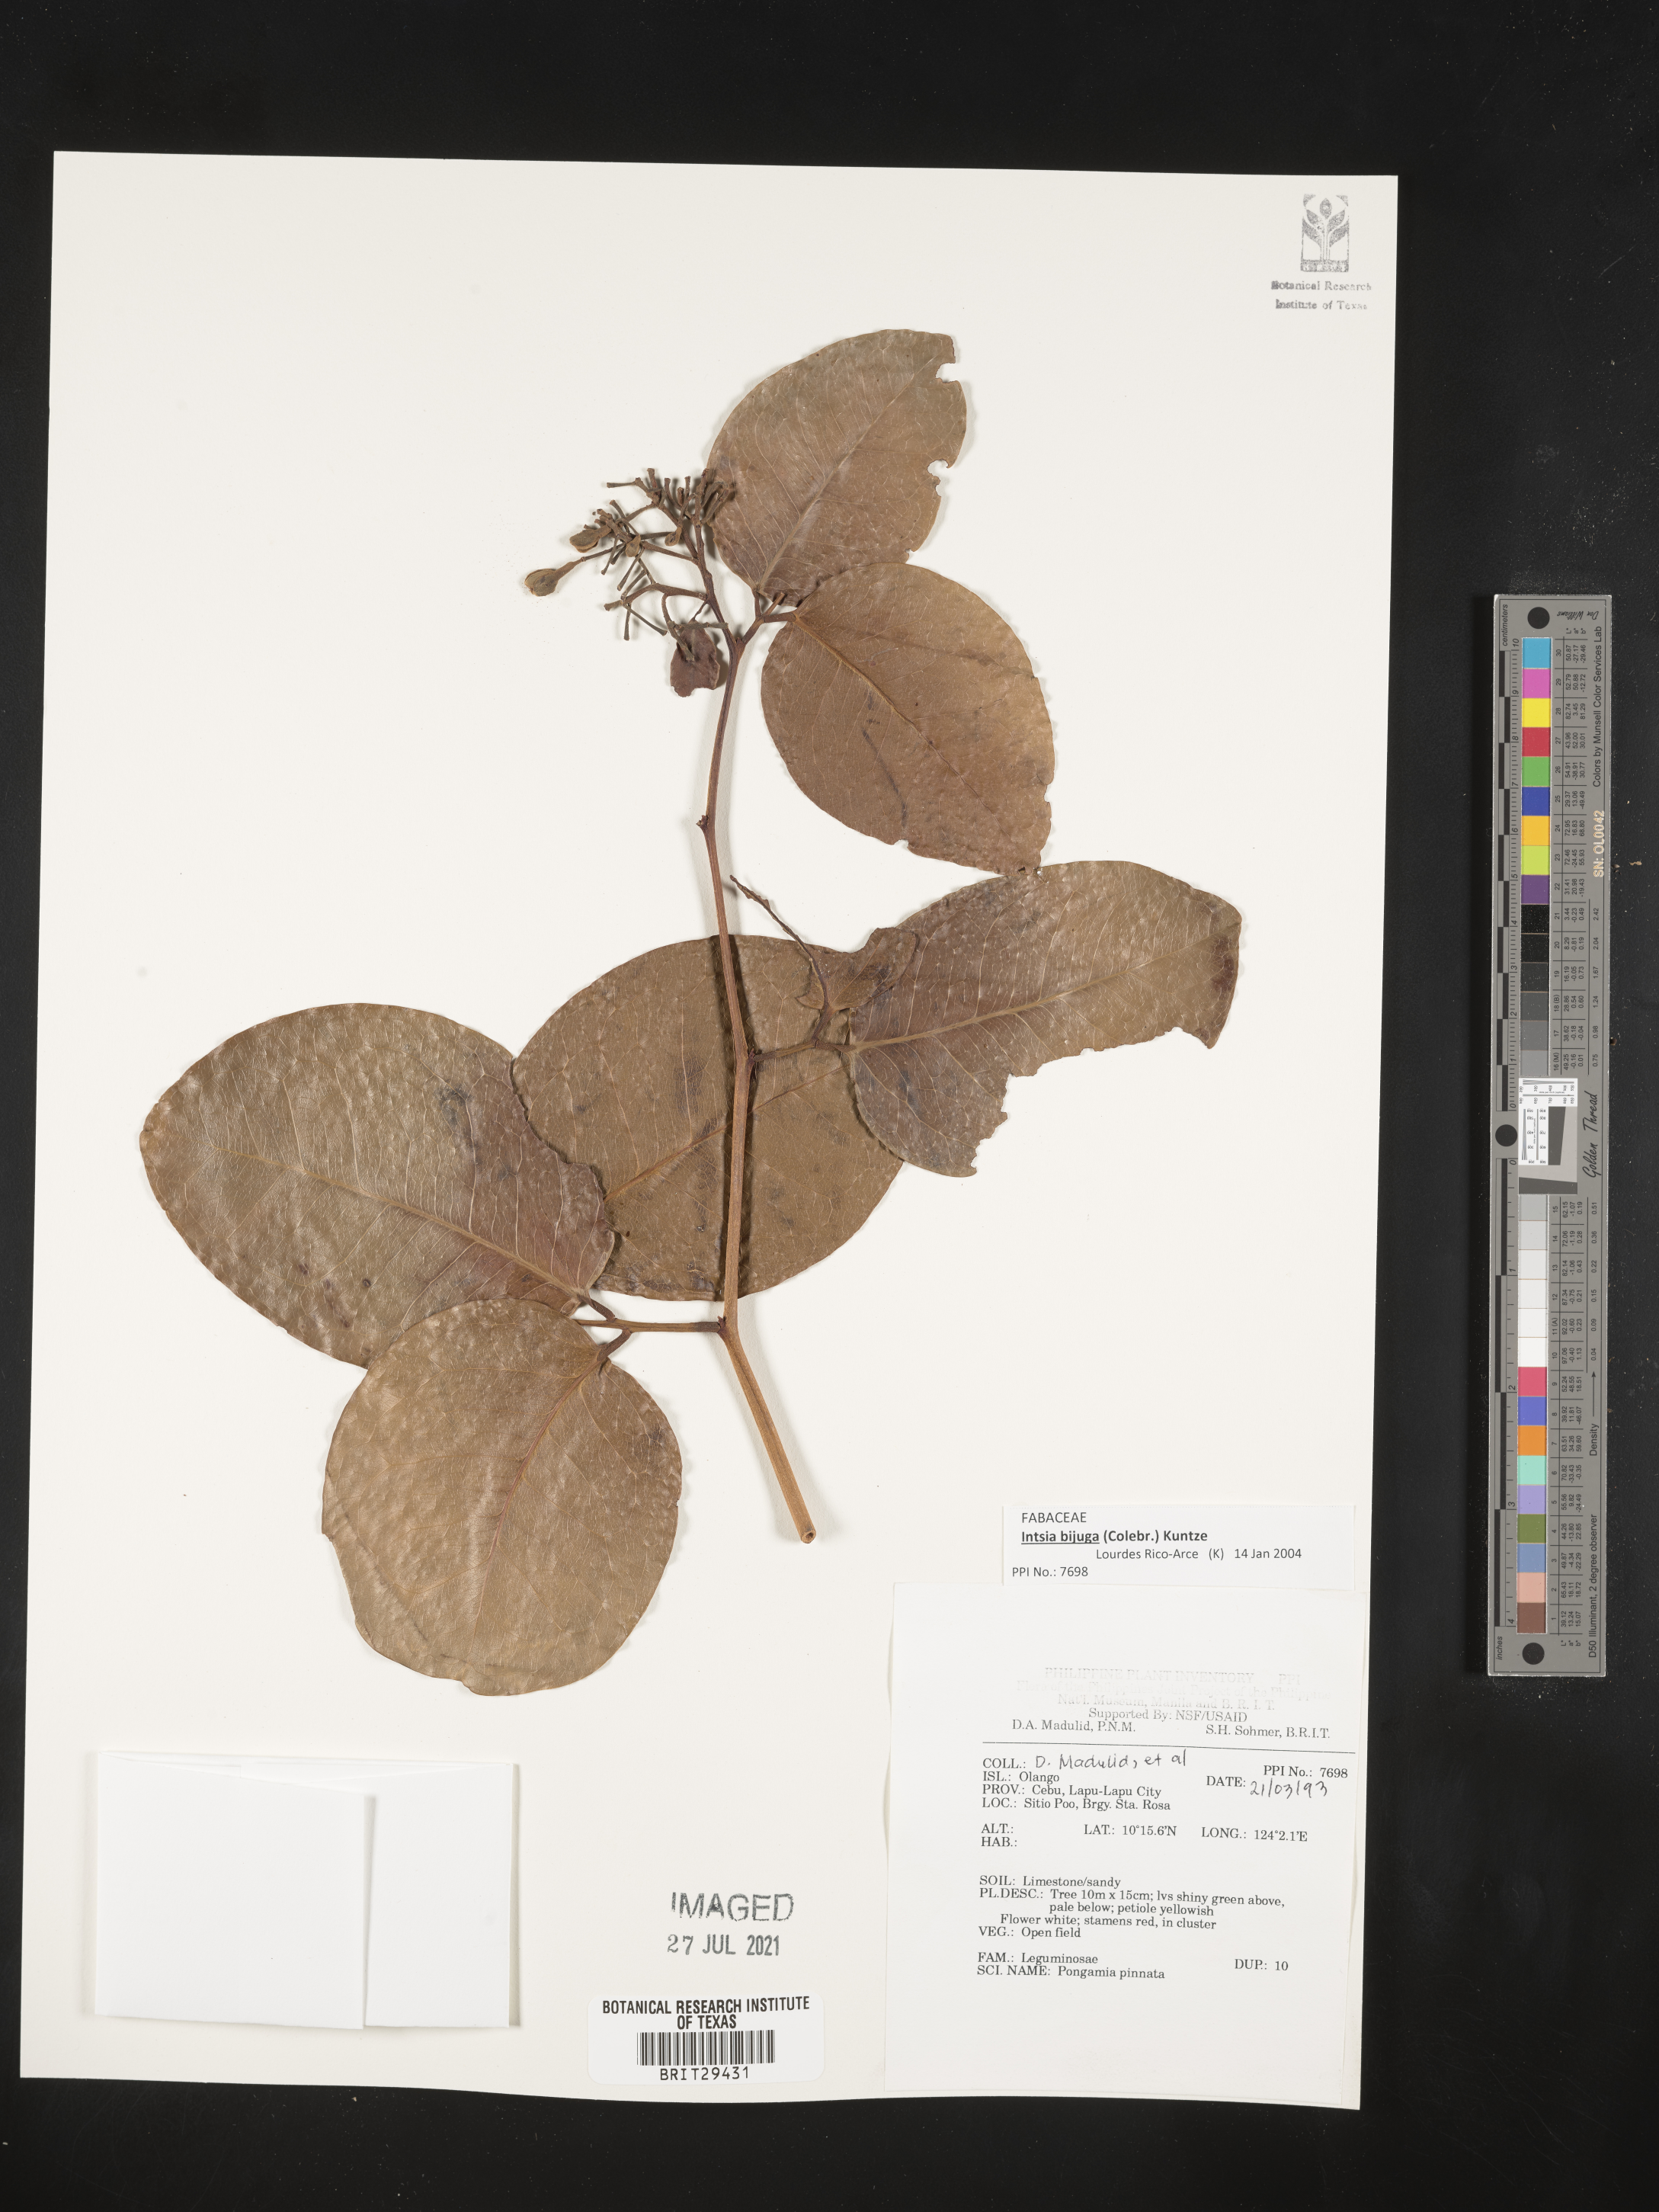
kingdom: Plantae
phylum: Tracheophyta
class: Magnoliopsida
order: Fabales
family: Fabaceae
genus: Intsia
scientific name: Intsia bijuga
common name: Moluccan ironwood
